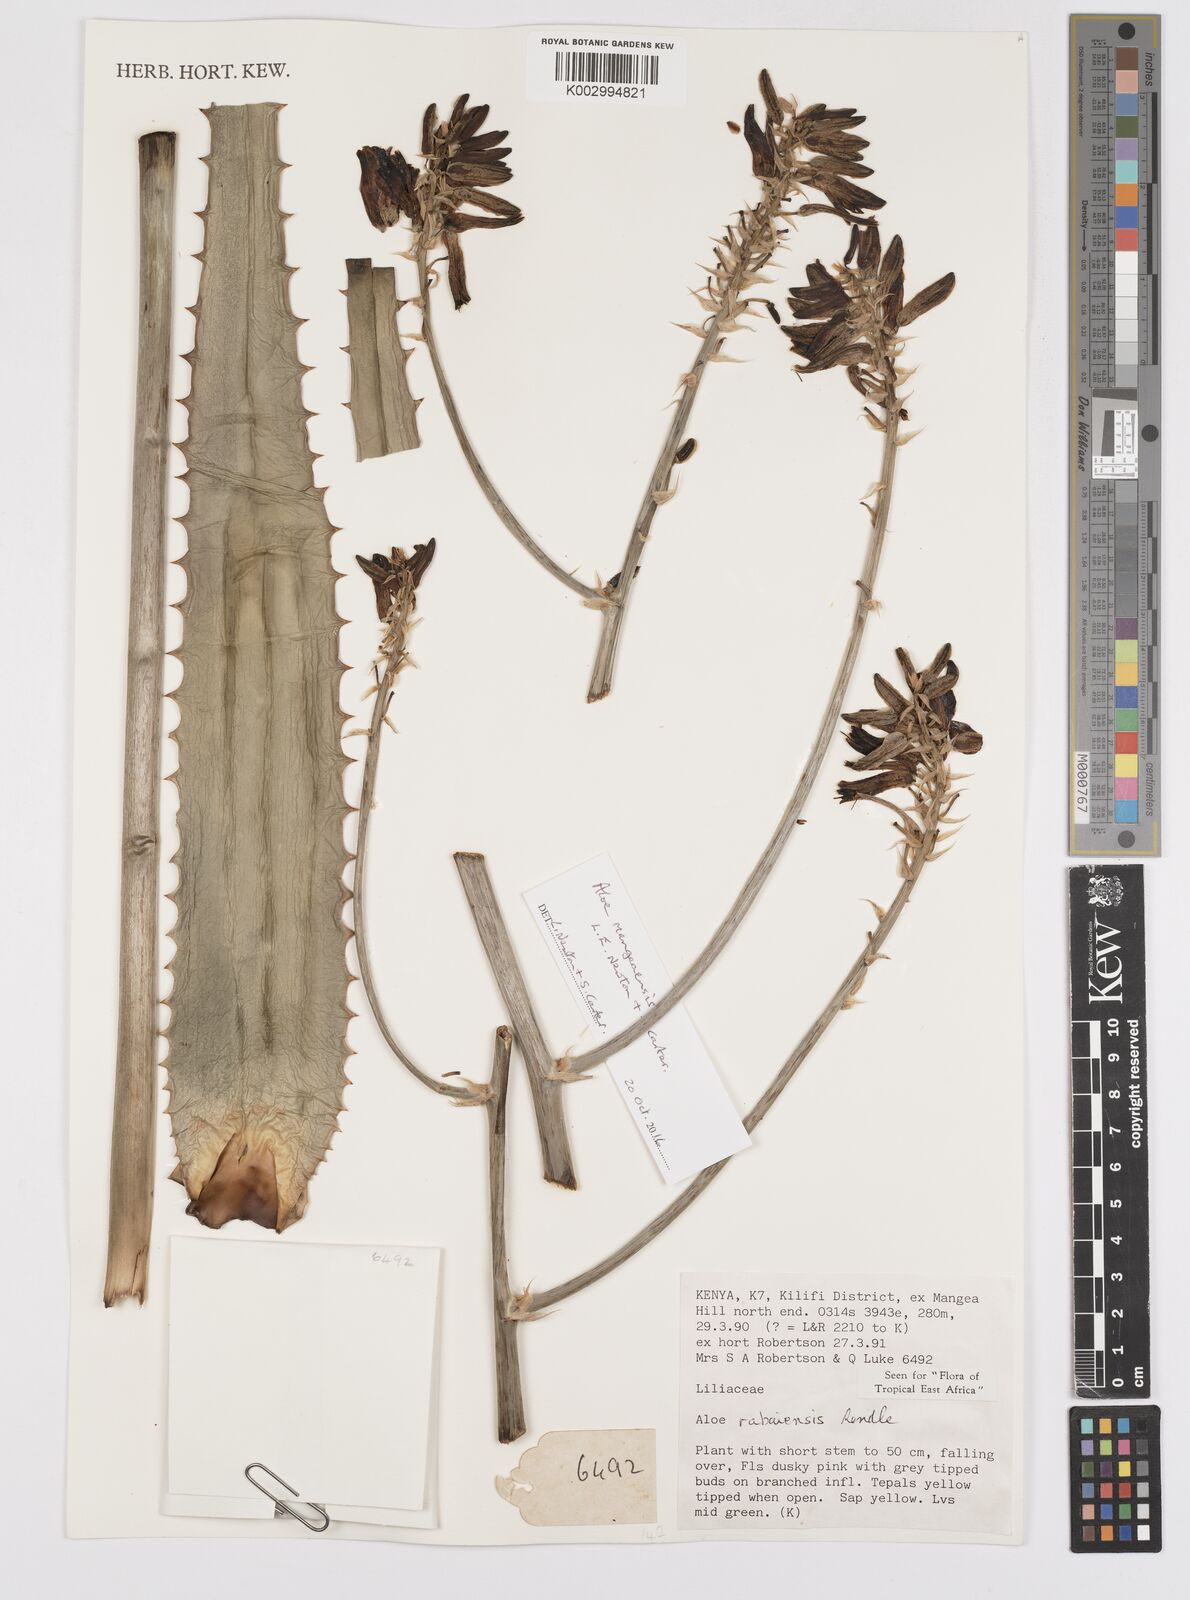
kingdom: Plantae
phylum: Tracheophyta
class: Liliopsida
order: Asparagales
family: Asphodelaceae
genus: Aloe
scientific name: Aloe rabaiensis
